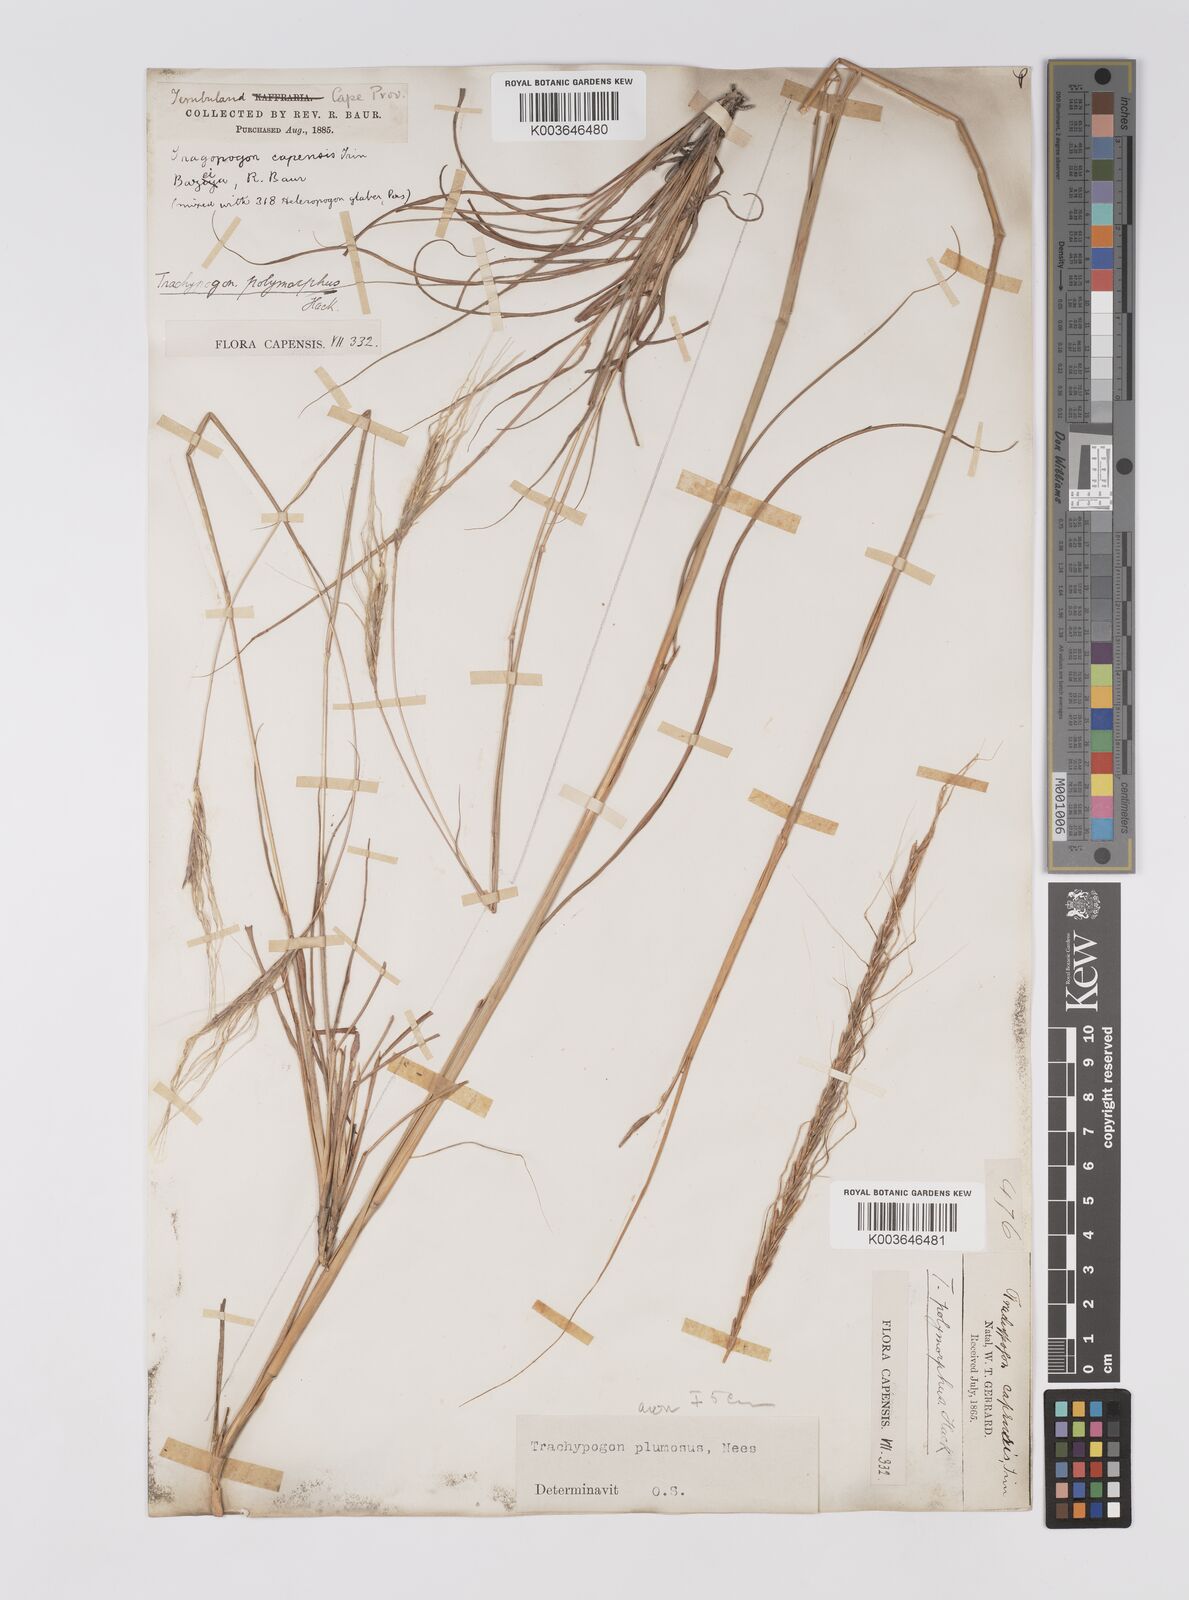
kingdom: Plantae
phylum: Tracheophyta
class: Liliopsida
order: Poales
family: Poaceae
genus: Trachypogon
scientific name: Trachypogon spicatus
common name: Crinkle-awn
